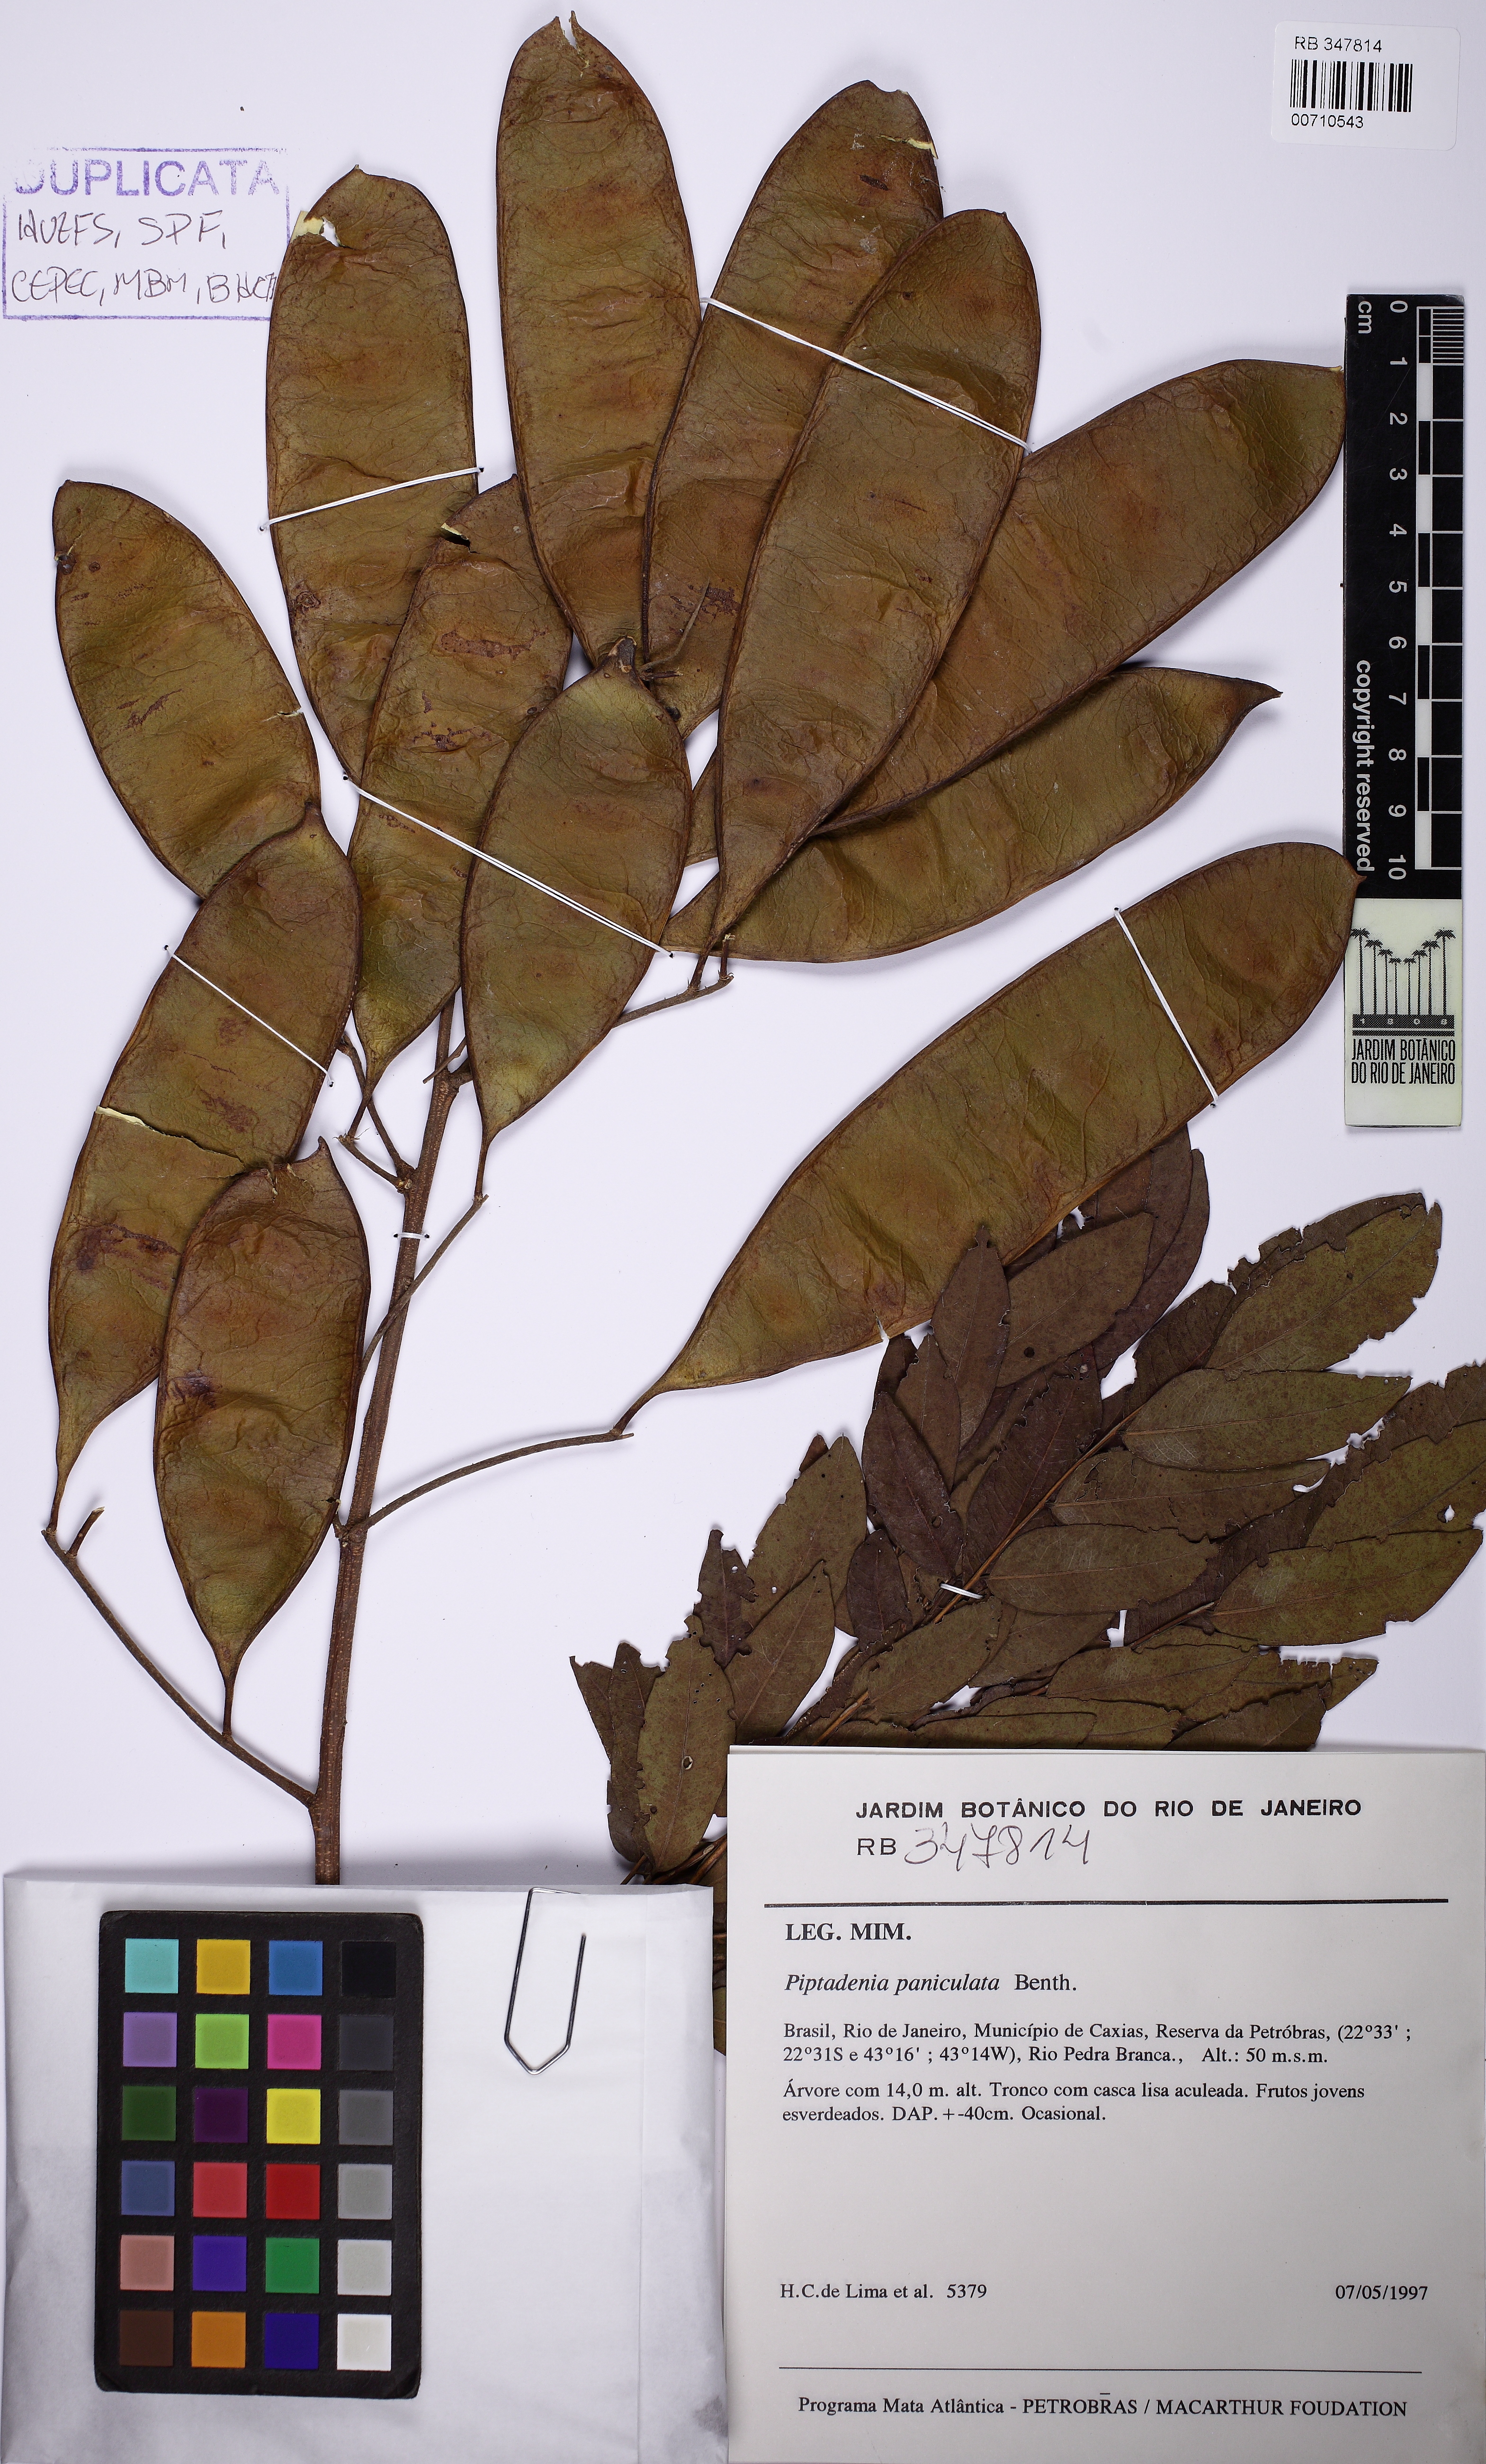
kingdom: Plantae
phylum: Tracheophyta
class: Magnoliopsida
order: Fabales
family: Fabaceae
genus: Piptadenia
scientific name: Piptadenia paniculata
